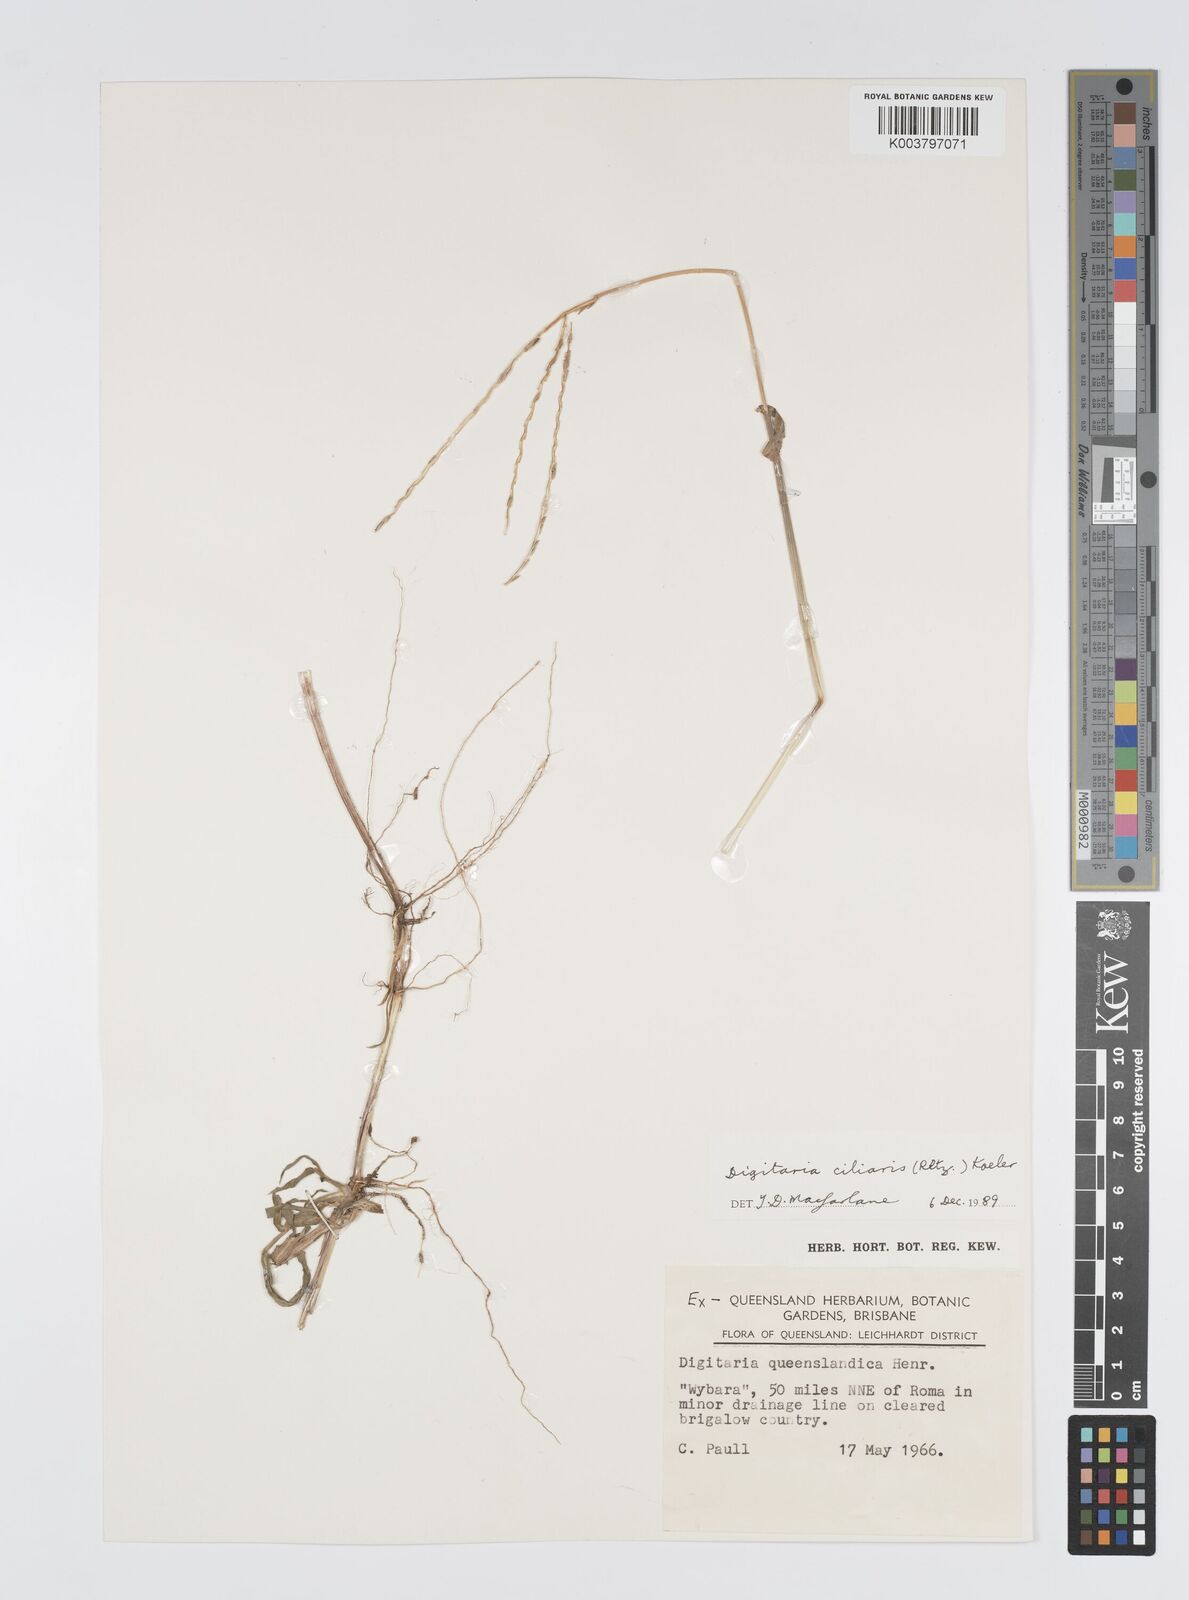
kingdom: Plantae
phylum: Tracheophyta
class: Liliopsida
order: Poales
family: Poaceae
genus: Digitaria
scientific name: Digitaria ciliaris
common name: Tropical finger-grass
